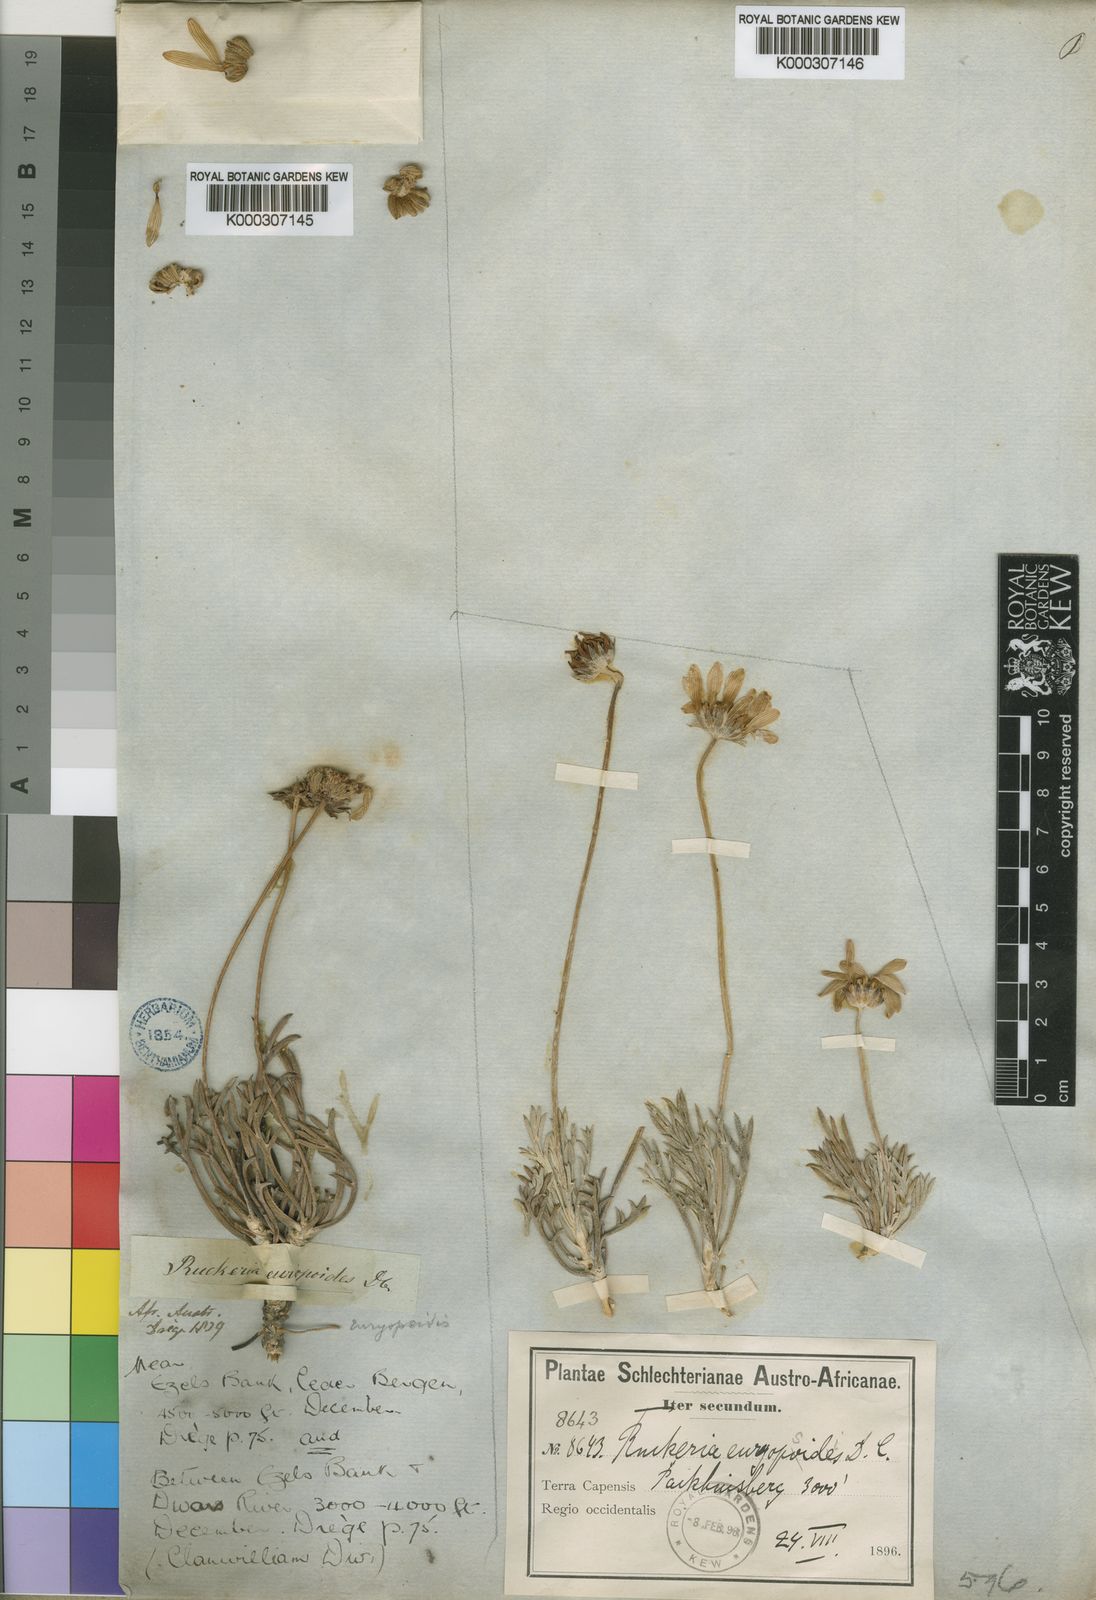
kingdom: Plantae
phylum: Tracheophyta
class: Magnoliopsida
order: Asterales
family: Asteraceae
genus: Euryops
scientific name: Euryops euryopoides
